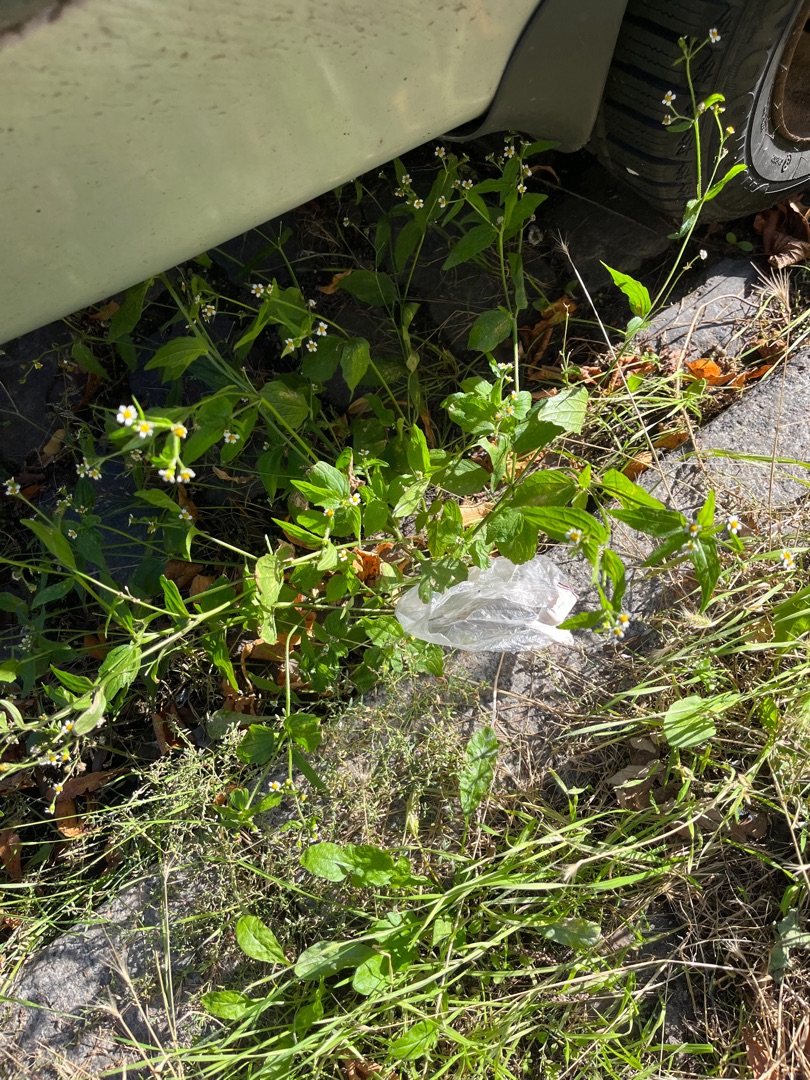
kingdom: Plantae
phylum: Tracheophyta
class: Magnoliopsida
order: Asterales
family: Asteraceae
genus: Galinsoga
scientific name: Galinsoga
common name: Kortstråleslægten
